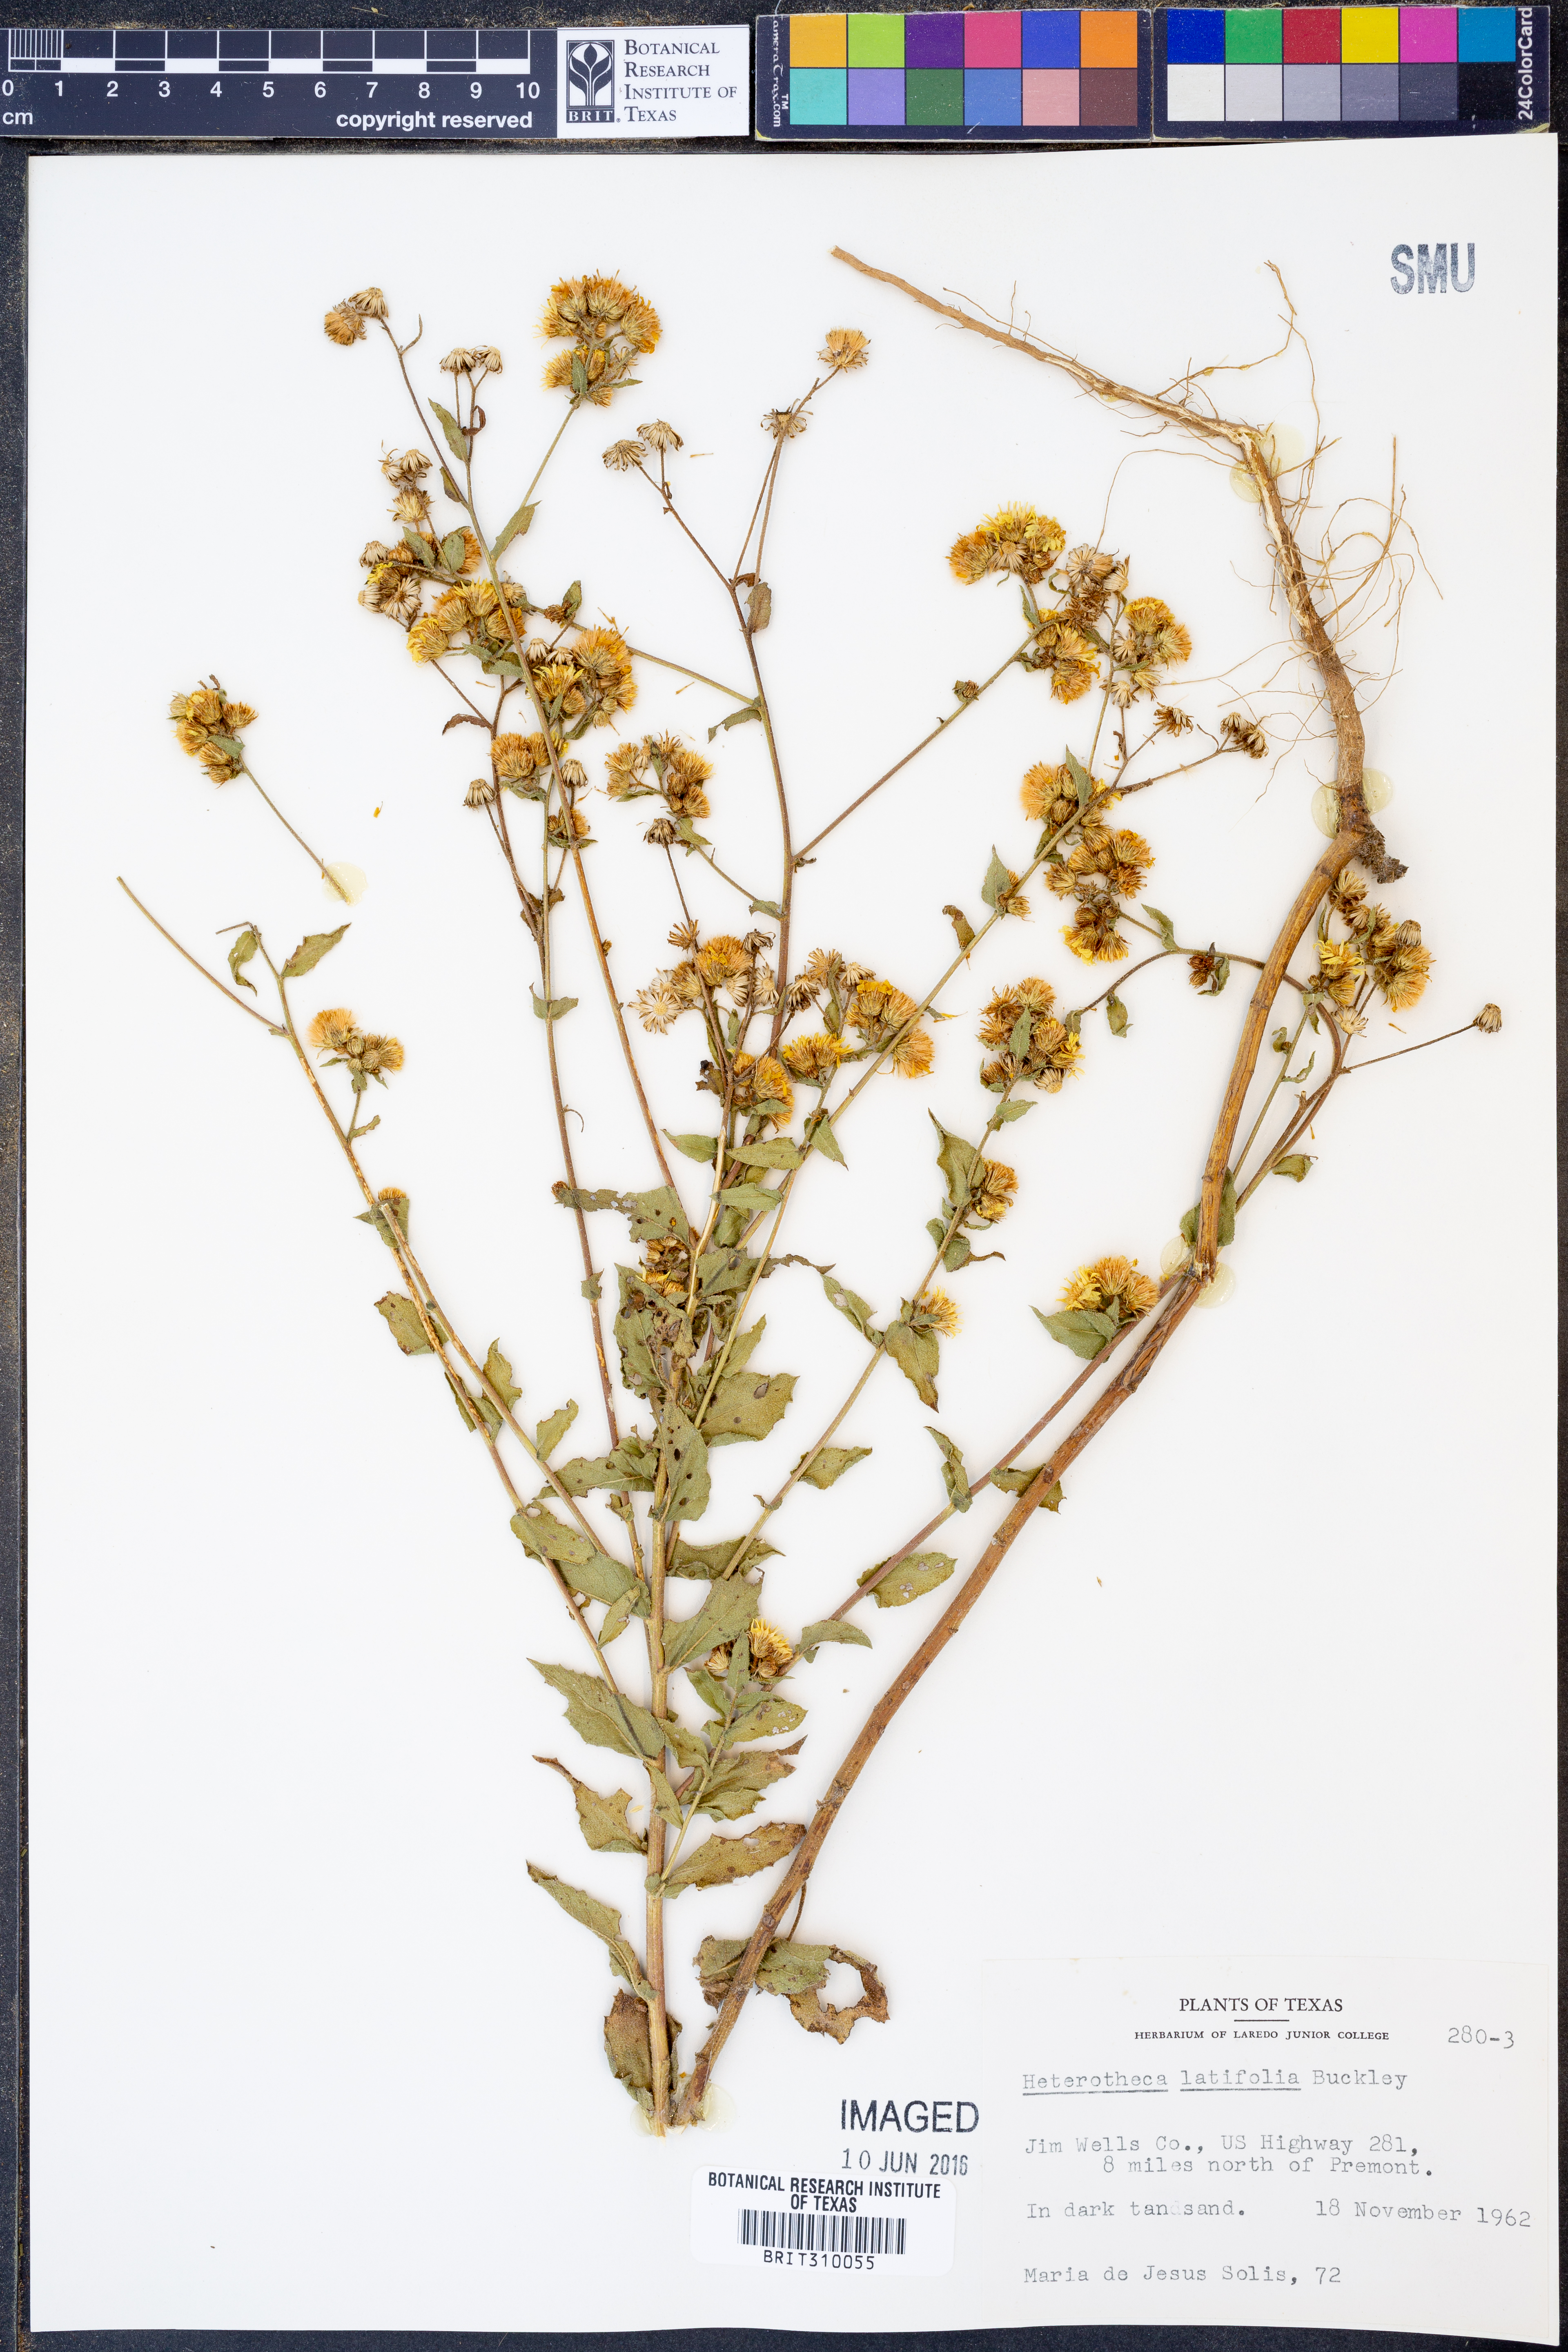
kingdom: Plantae
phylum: Tracheophyta
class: Magnoliopsida
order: Asterales
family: Asteraceae
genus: Heterotheca
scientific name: Heterotheca subaxillaris
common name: Camphorweed
